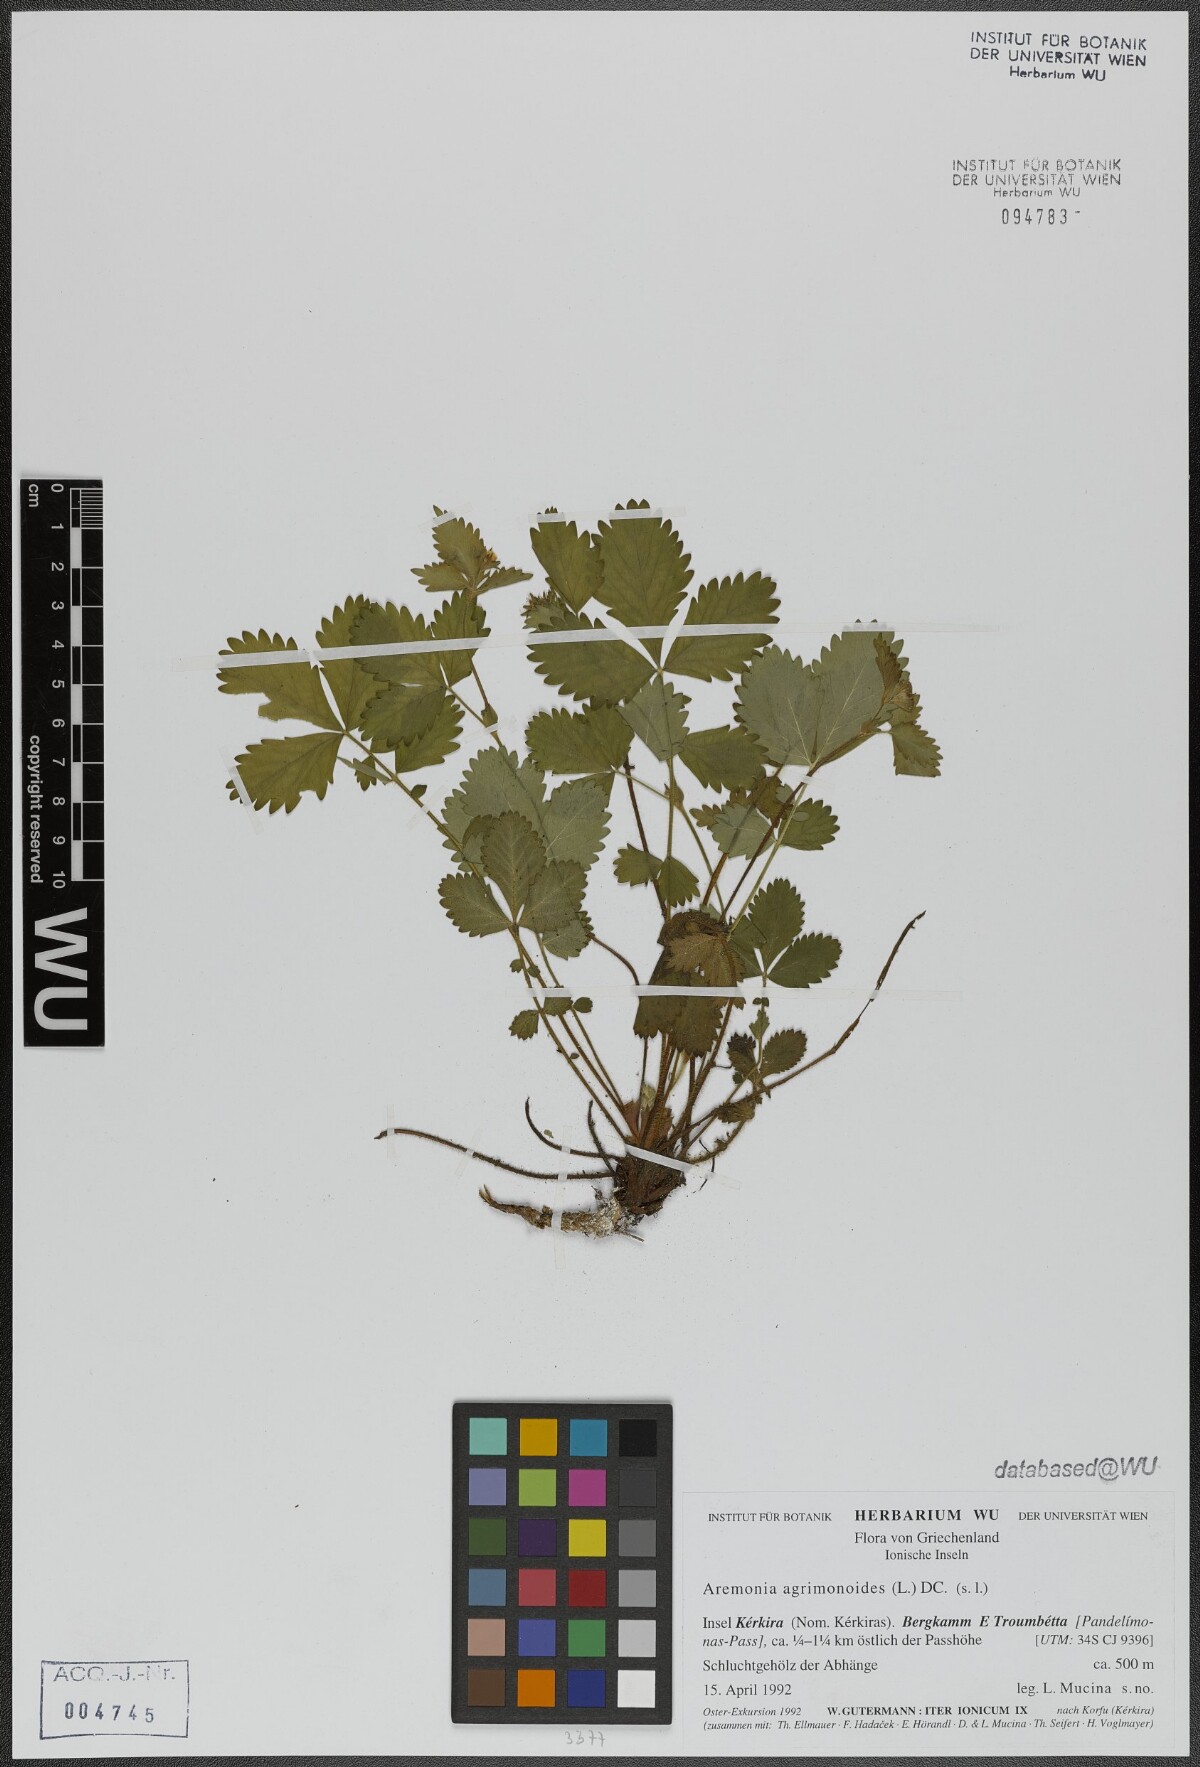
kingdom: Plantae
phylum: Tracheophyta
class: Magnoliopsida
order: Rosales
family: Rosaceae
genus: Aremonia
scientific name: Aremonia agrimonoides
